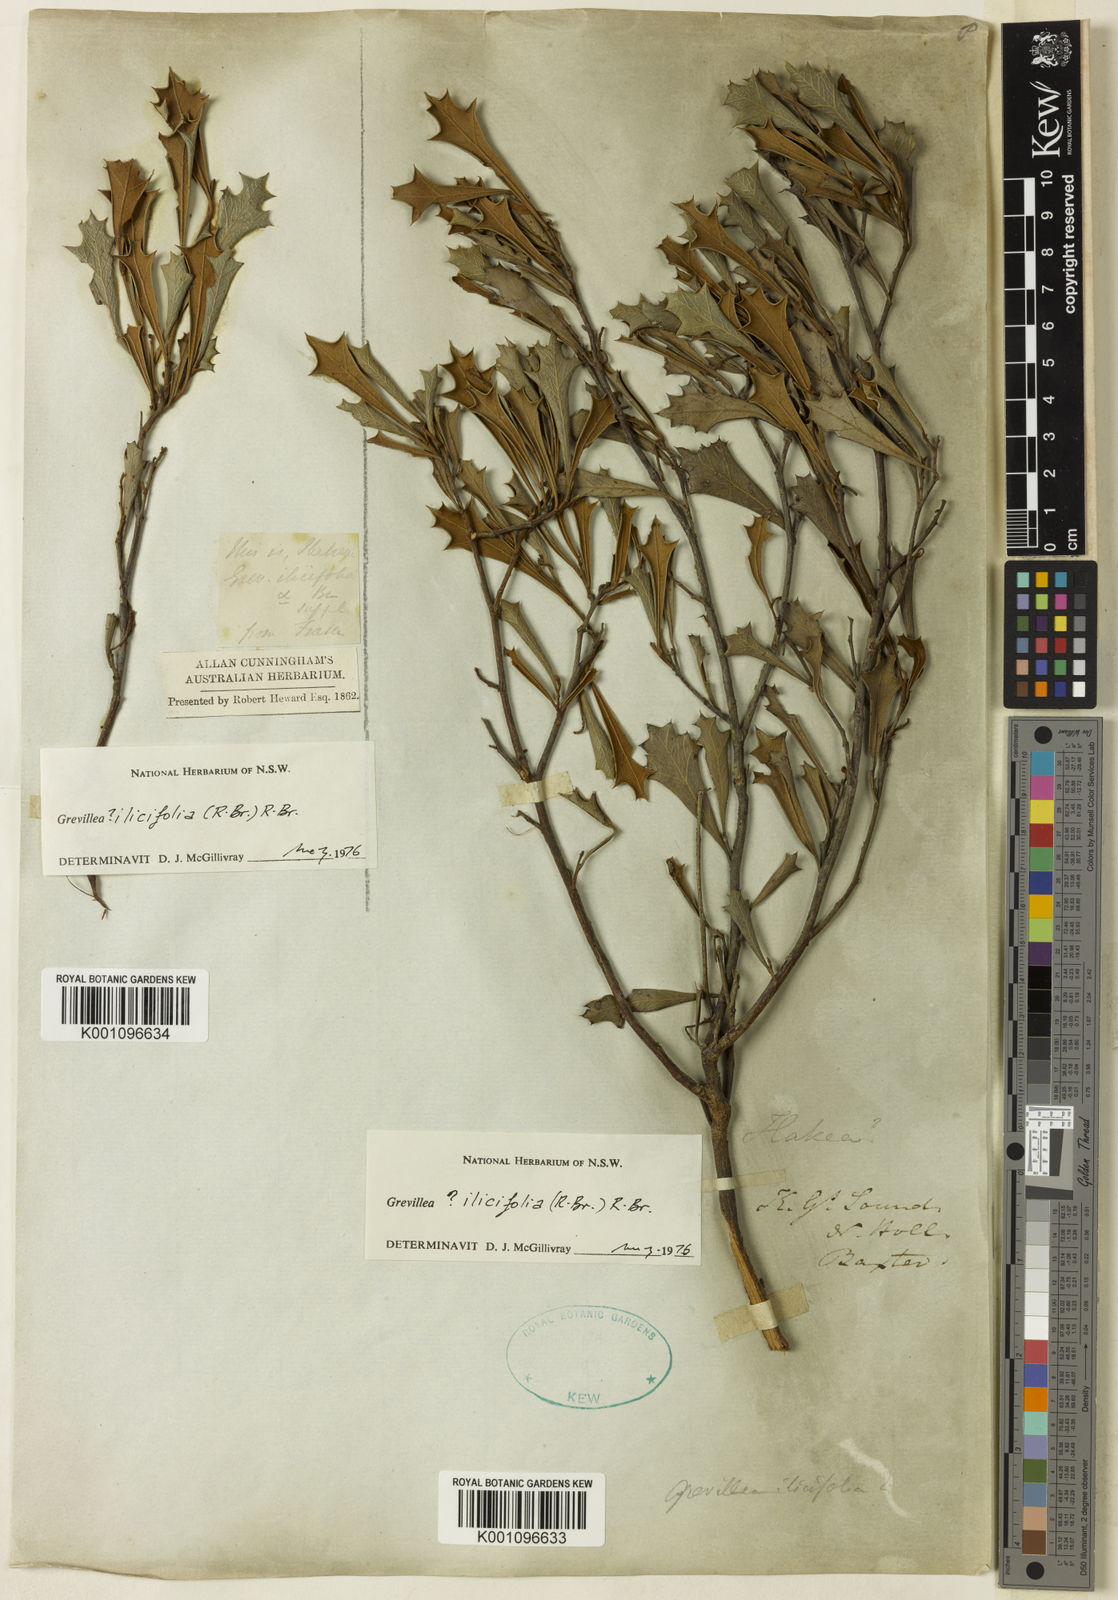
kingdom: Plantae
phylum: Tracheophyta
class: Magnoliopsida
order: Proteales
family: Proteaceae
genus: Grevillea
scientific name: Grevillea dilatata
